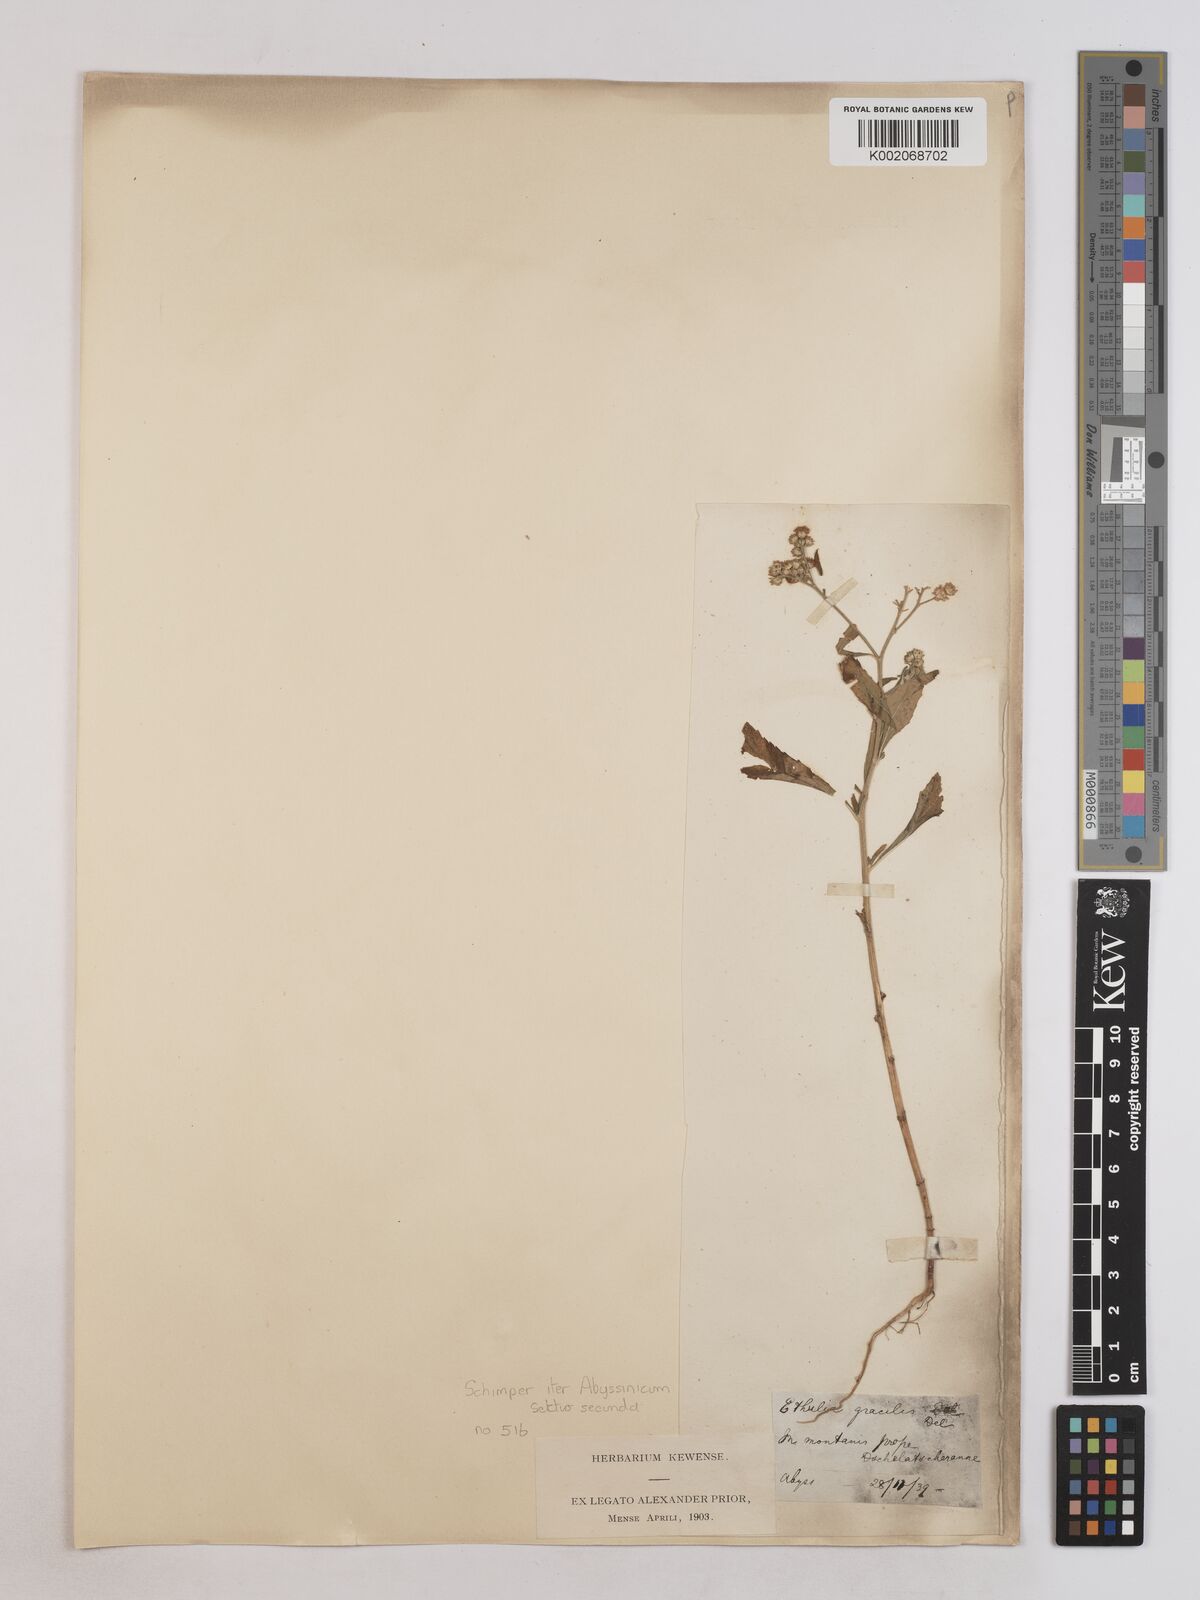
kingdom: Plantae
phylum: Tracheophyta
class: Magnoliopsida
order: Asterales
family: Asteraceae
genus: Ethulia
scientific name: Ethulia gracilis
